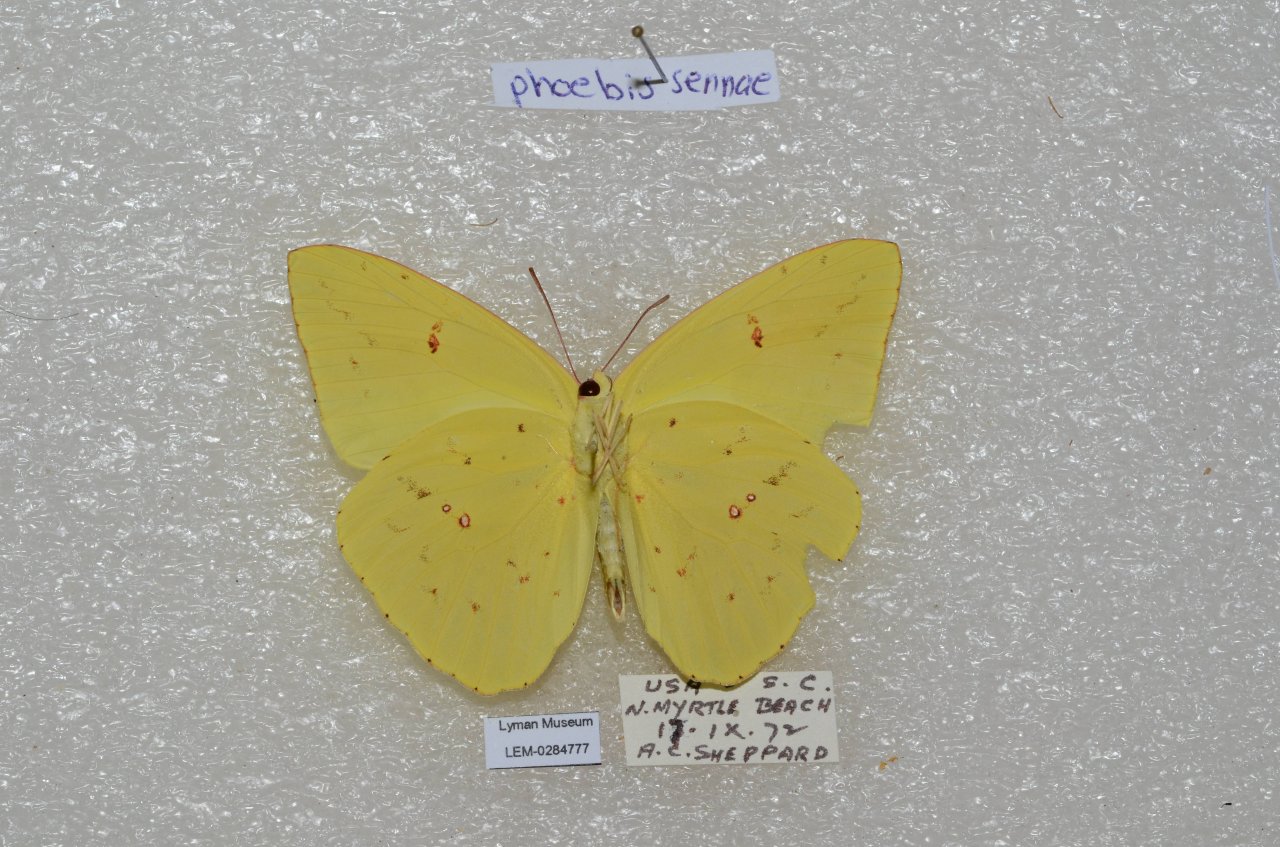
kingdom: Animalia
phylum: Arthropoda
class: Insecta
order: Lepidoptera
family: Pieridae
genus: Phoebis
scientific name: Phoebis sennae
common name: Cloudless Sulphur
